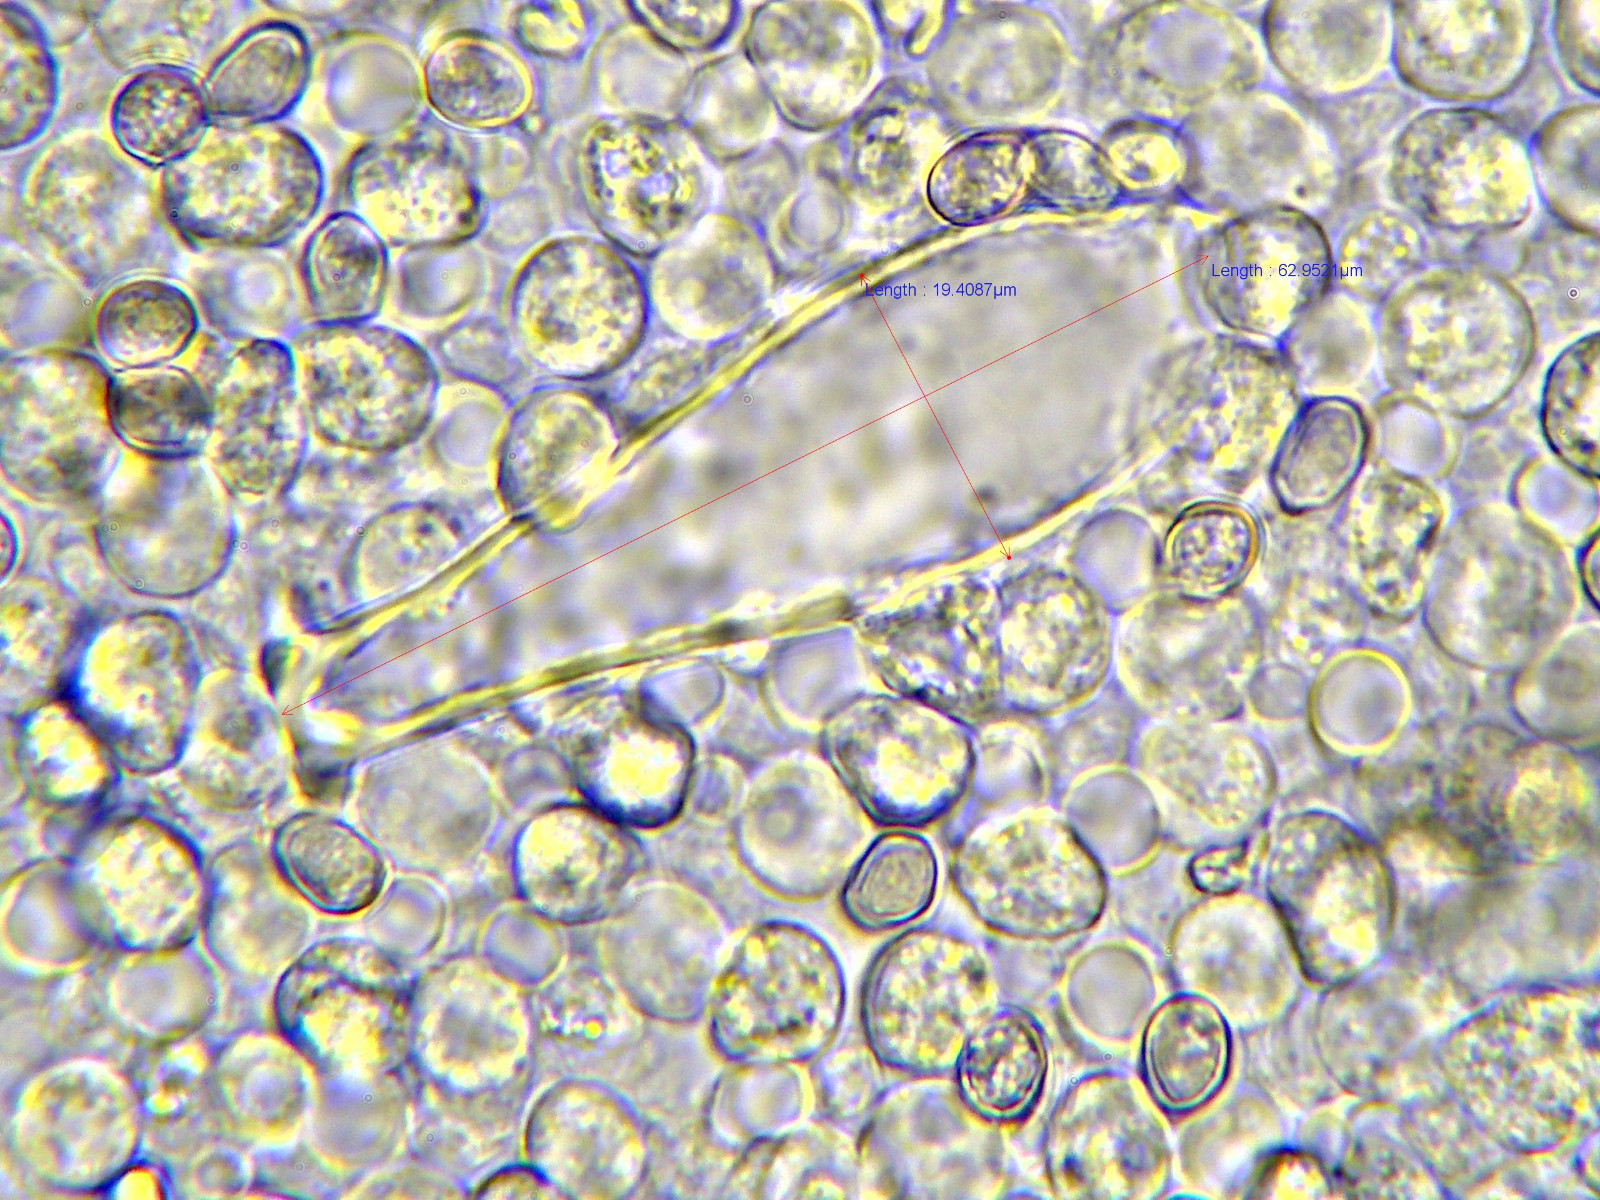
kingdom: Fungi
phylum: Basidiomycota
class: Agaricomycetes
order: Agaricales
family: Pluteaceae
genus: Pluteus
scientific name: Pluteus salicinus
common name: stiv skærmhat
